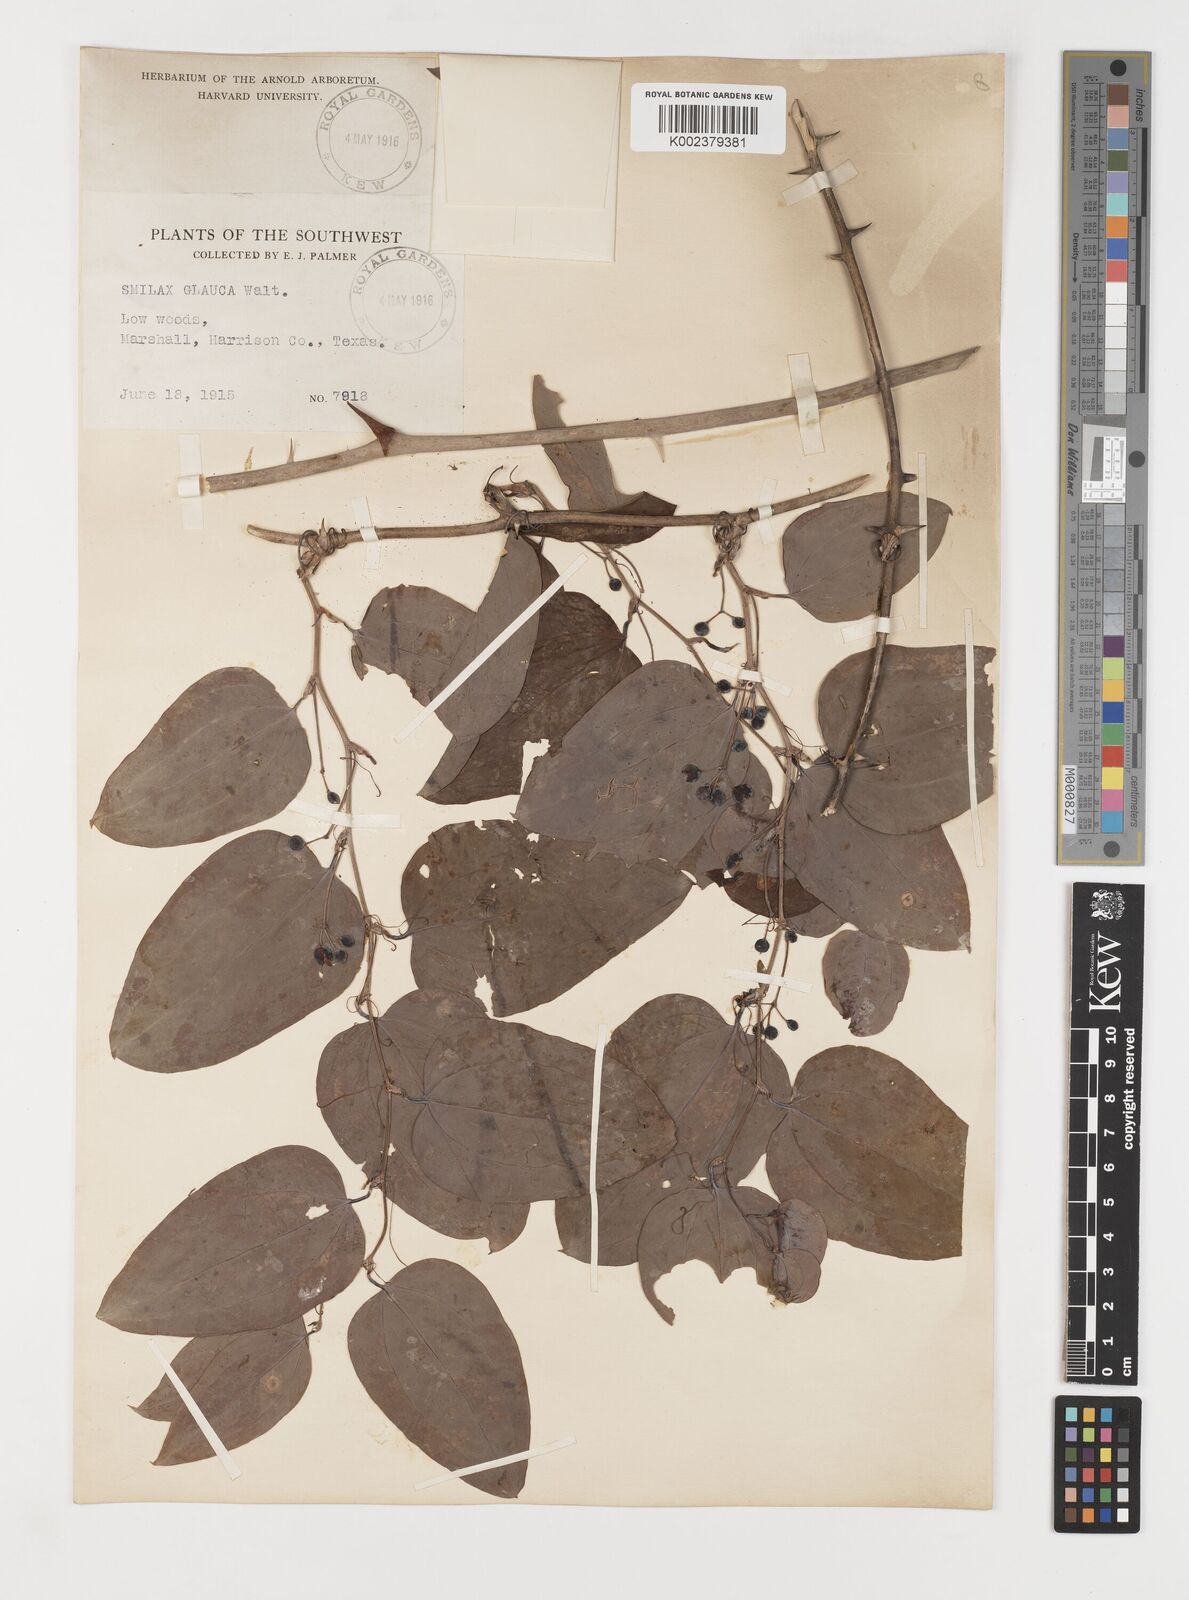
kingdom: Plantae
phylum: Tracheophyta
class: Liliopsida
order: Liliales
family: Smilacaceae
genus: Smilax
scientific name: Smilax glauca
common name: Cat greenbrier
